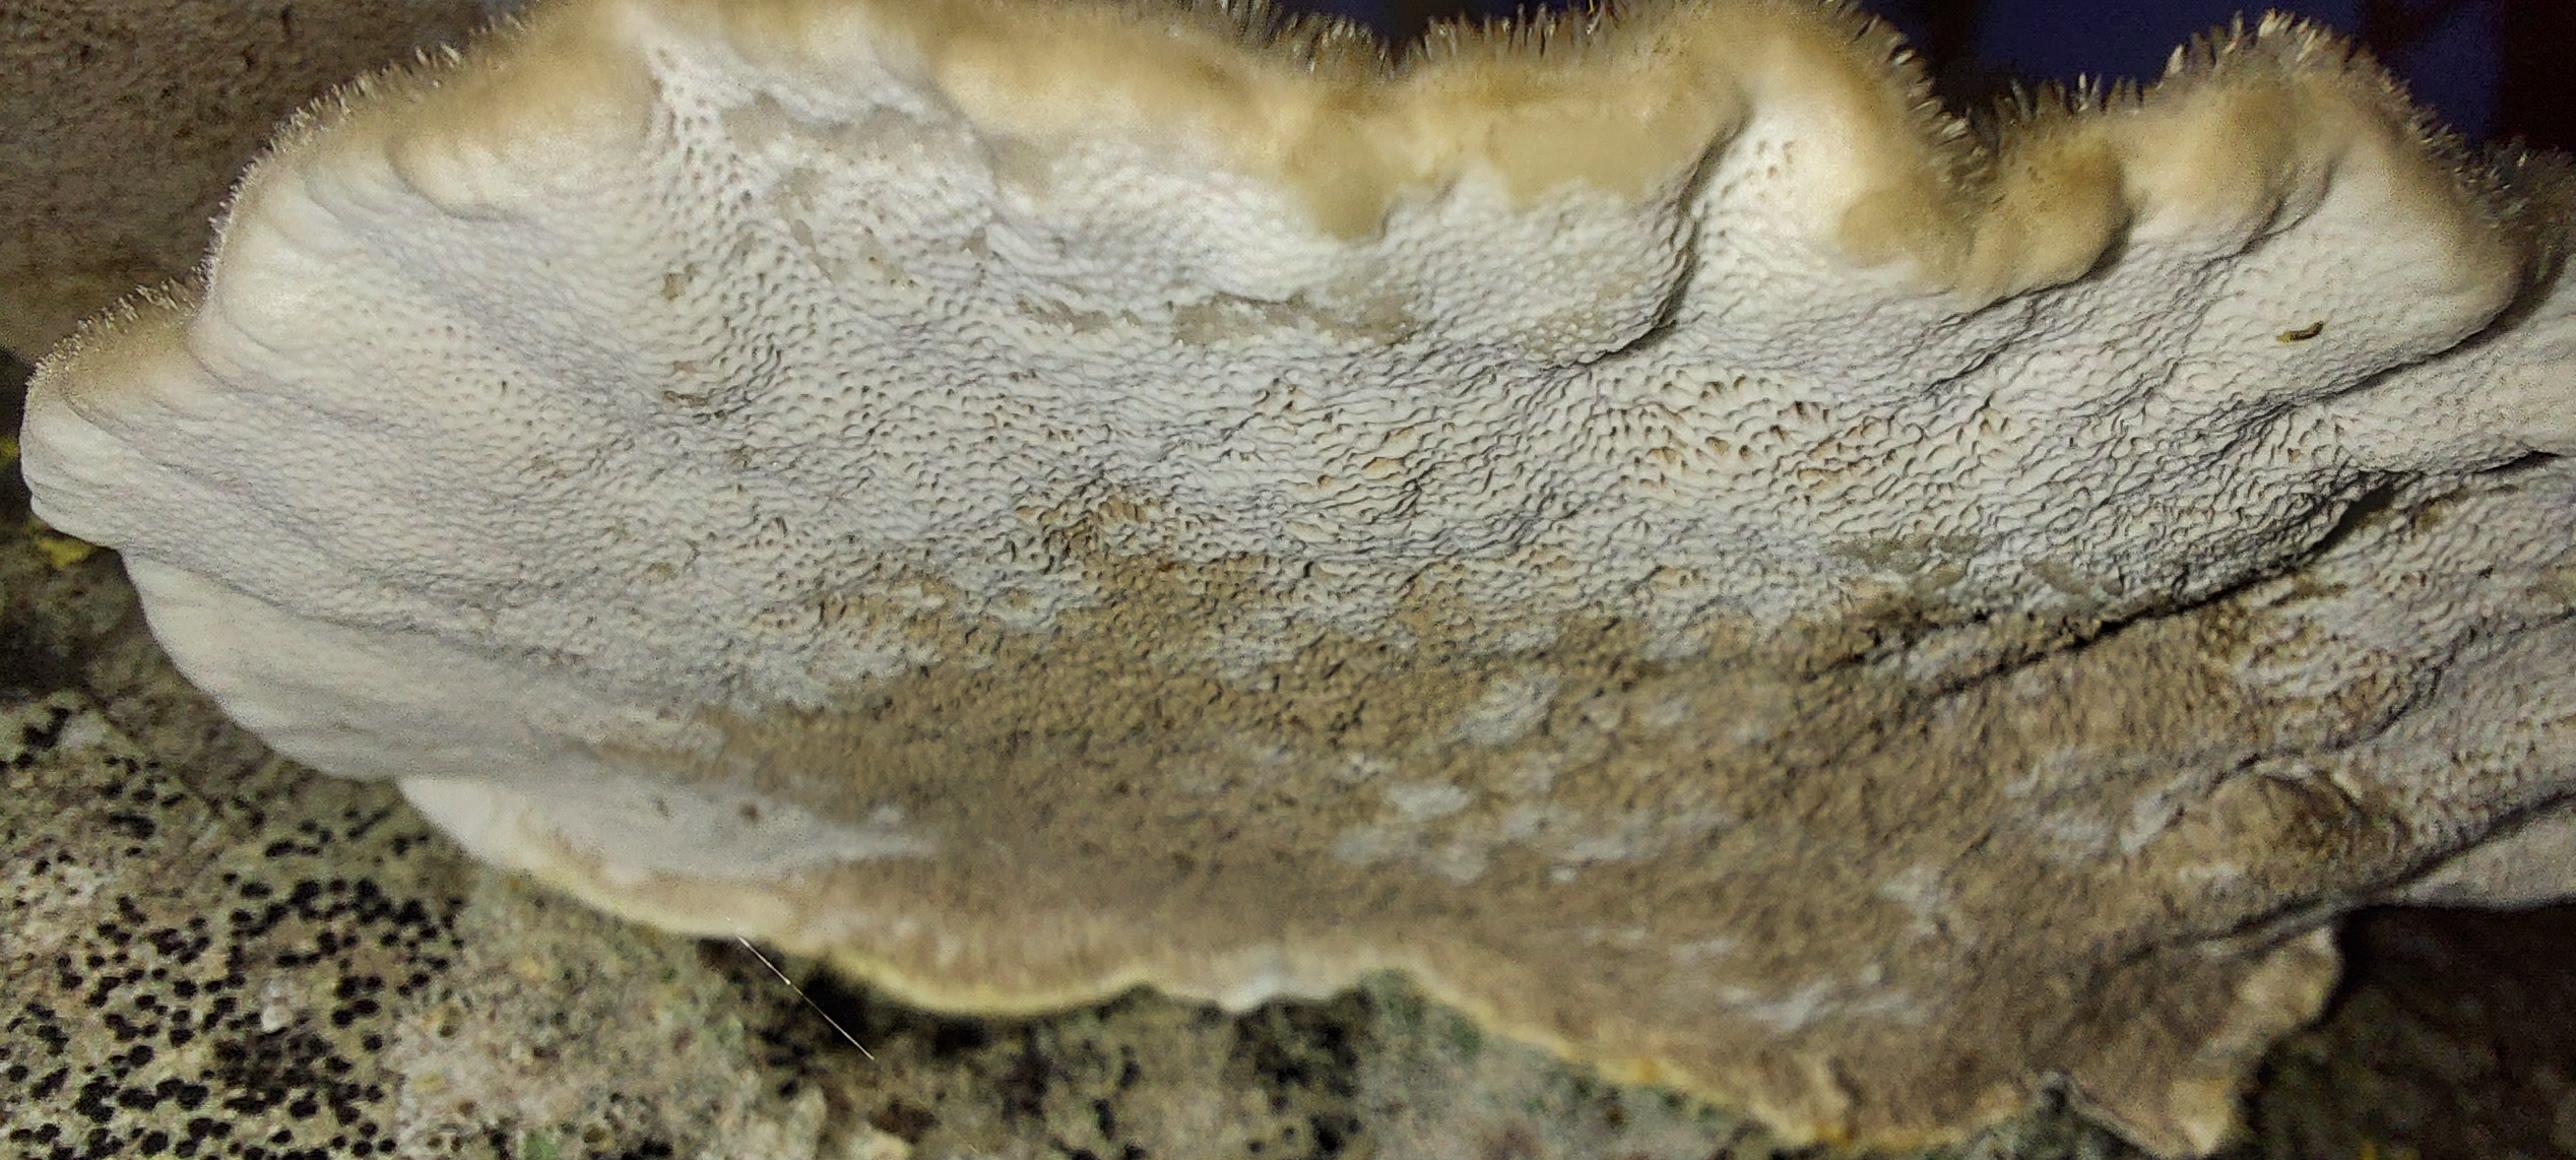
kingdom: Fungi
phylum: Basidiomycota
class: Agaricomycetes
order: Polyporales
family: Polyporaceae
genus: Trametes
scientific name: Trametes hirsuta
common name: håret læderporesvamp
